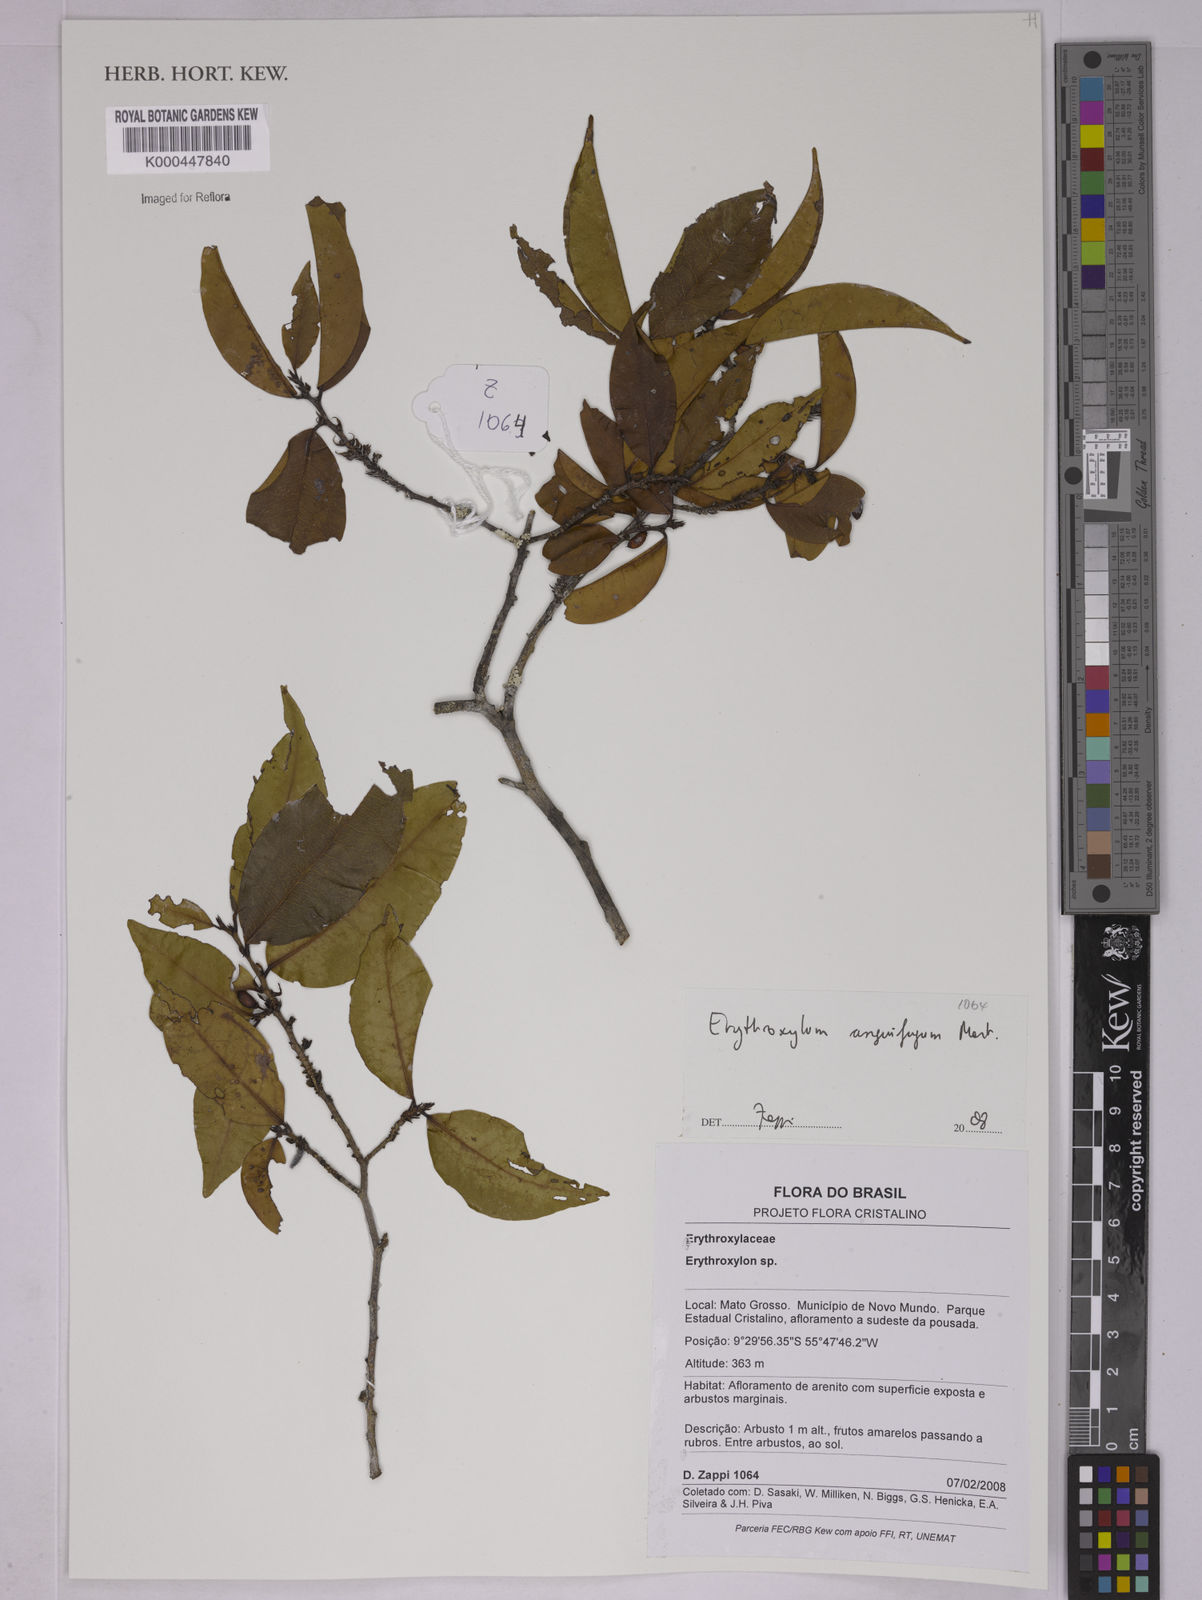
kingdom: Plantae
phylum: Tracheophyta
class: Magnoliopsida
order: Malpighiales
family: Erythroxylaceae
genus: Erythroxylum
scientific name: Erythroxylum anguifugum
